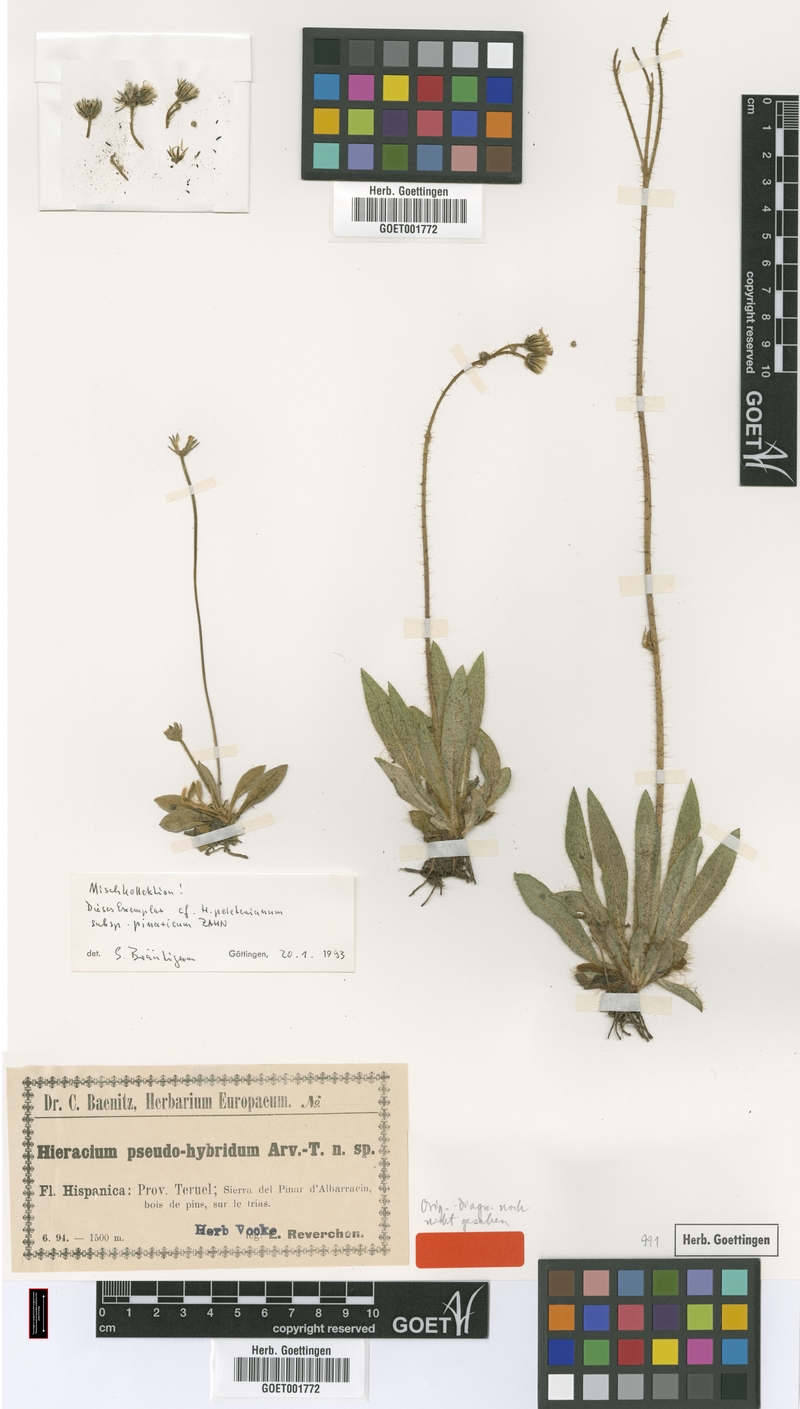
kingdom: Plantae
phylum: Tracheophyta
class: Magnoliopsida
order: Asterales
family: Asteraceae
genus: Pilosella
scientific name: Pilosella pseudohybrida
